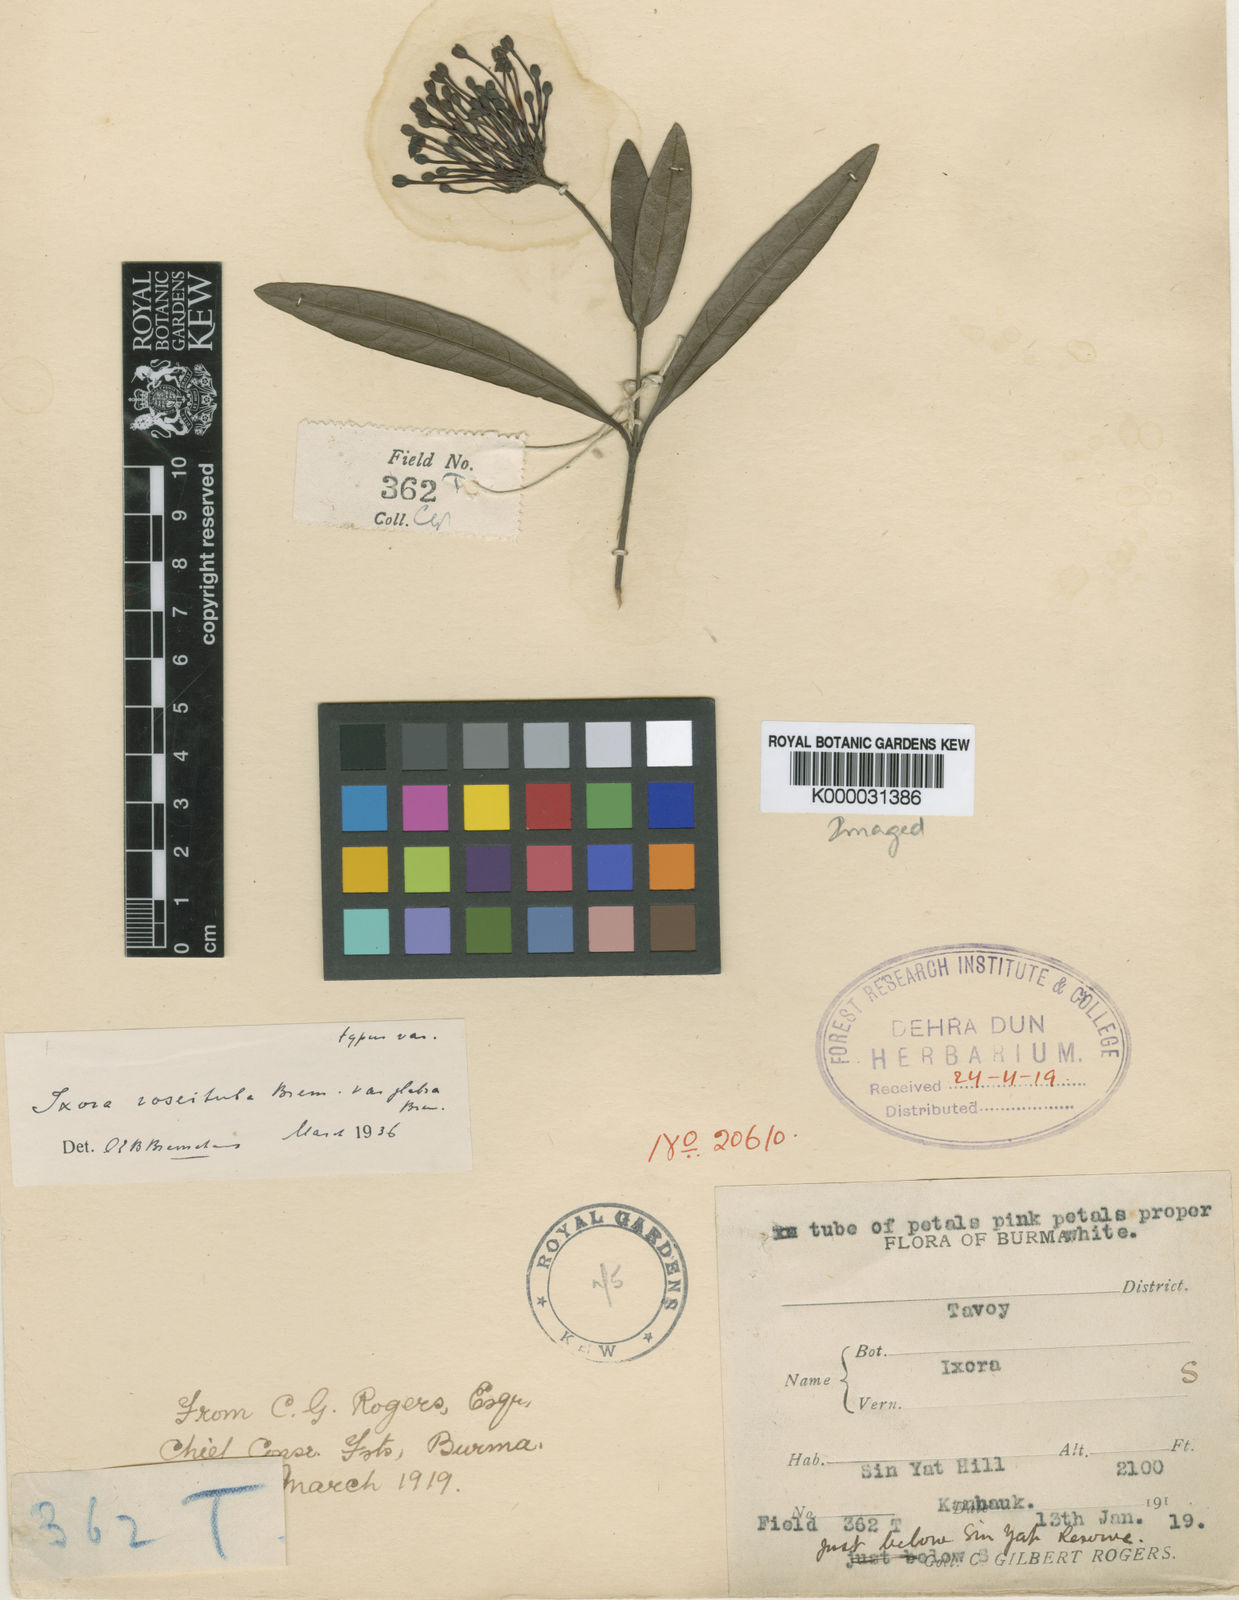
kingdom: Plantae
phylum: Tracheophyta
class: Magnoliopsida
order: Gentianales
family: Rubiaceae
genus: Ixora
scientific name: Ixora
